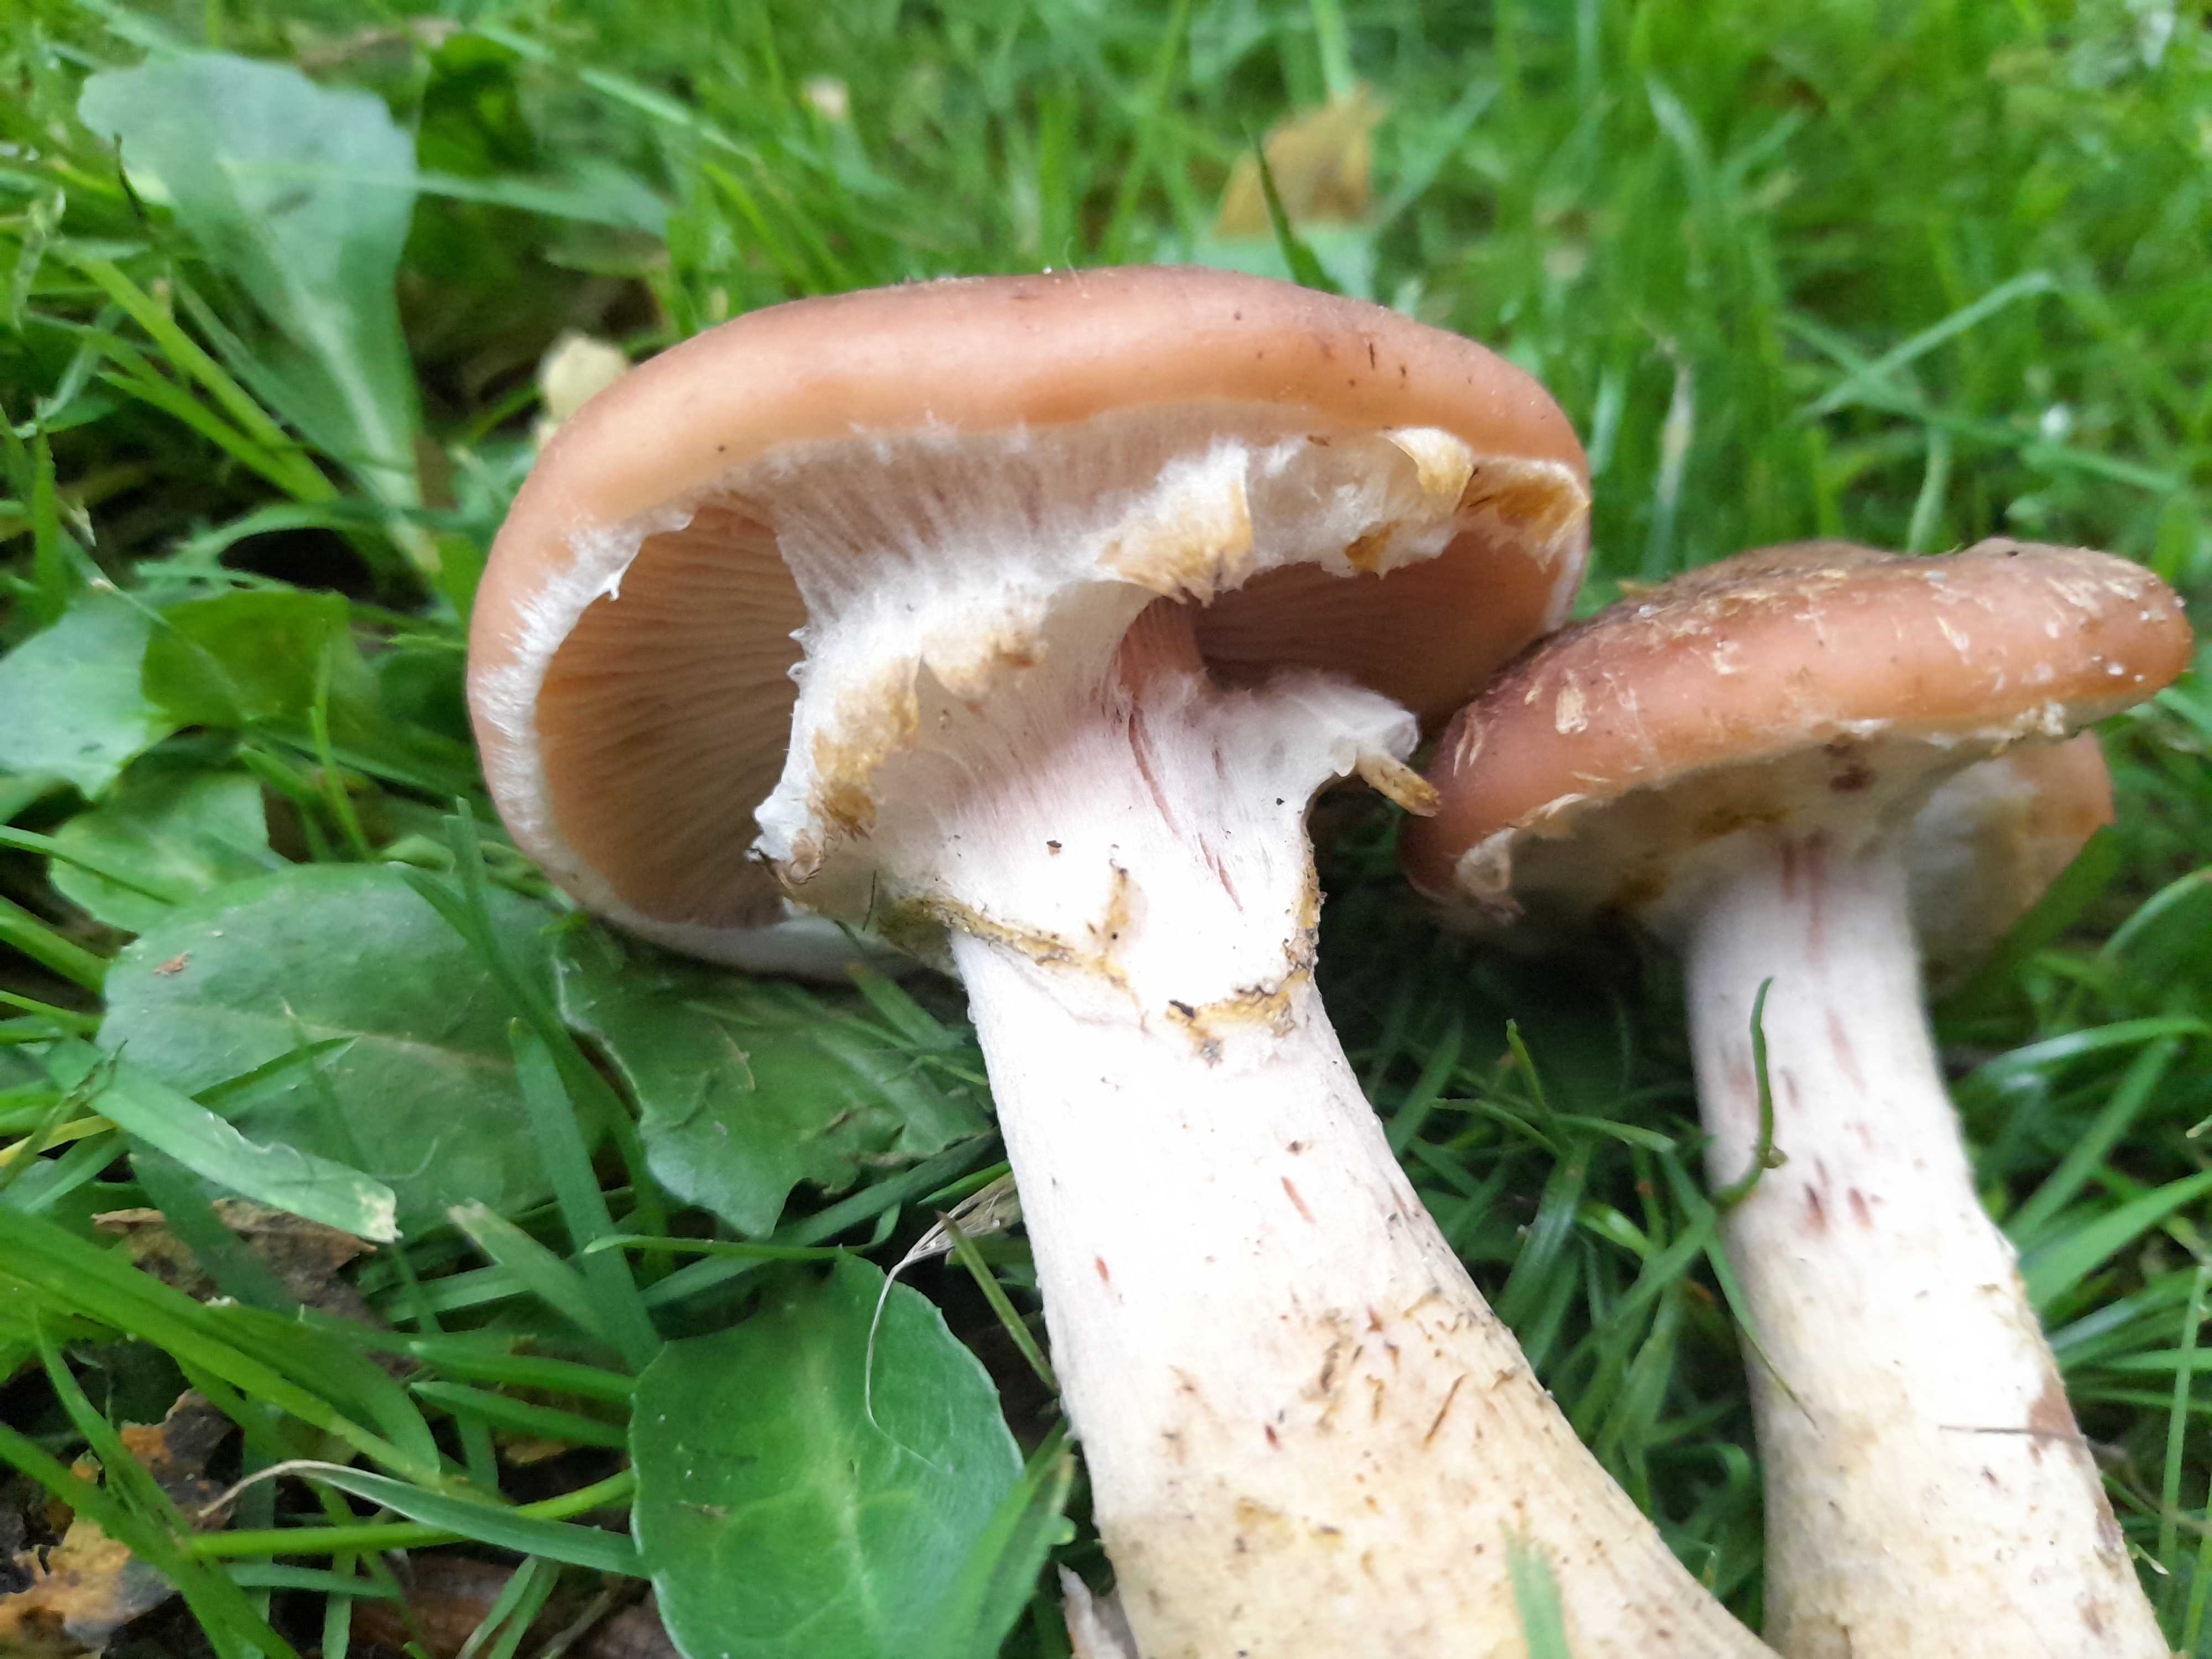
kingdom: Fungi
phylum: Basidiomycota
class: Agaricomycetes
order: Agaricales
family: Physalacriaceae
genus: Armillaria
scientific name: Armillaria lutea
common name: køllestokket honningsvamp
